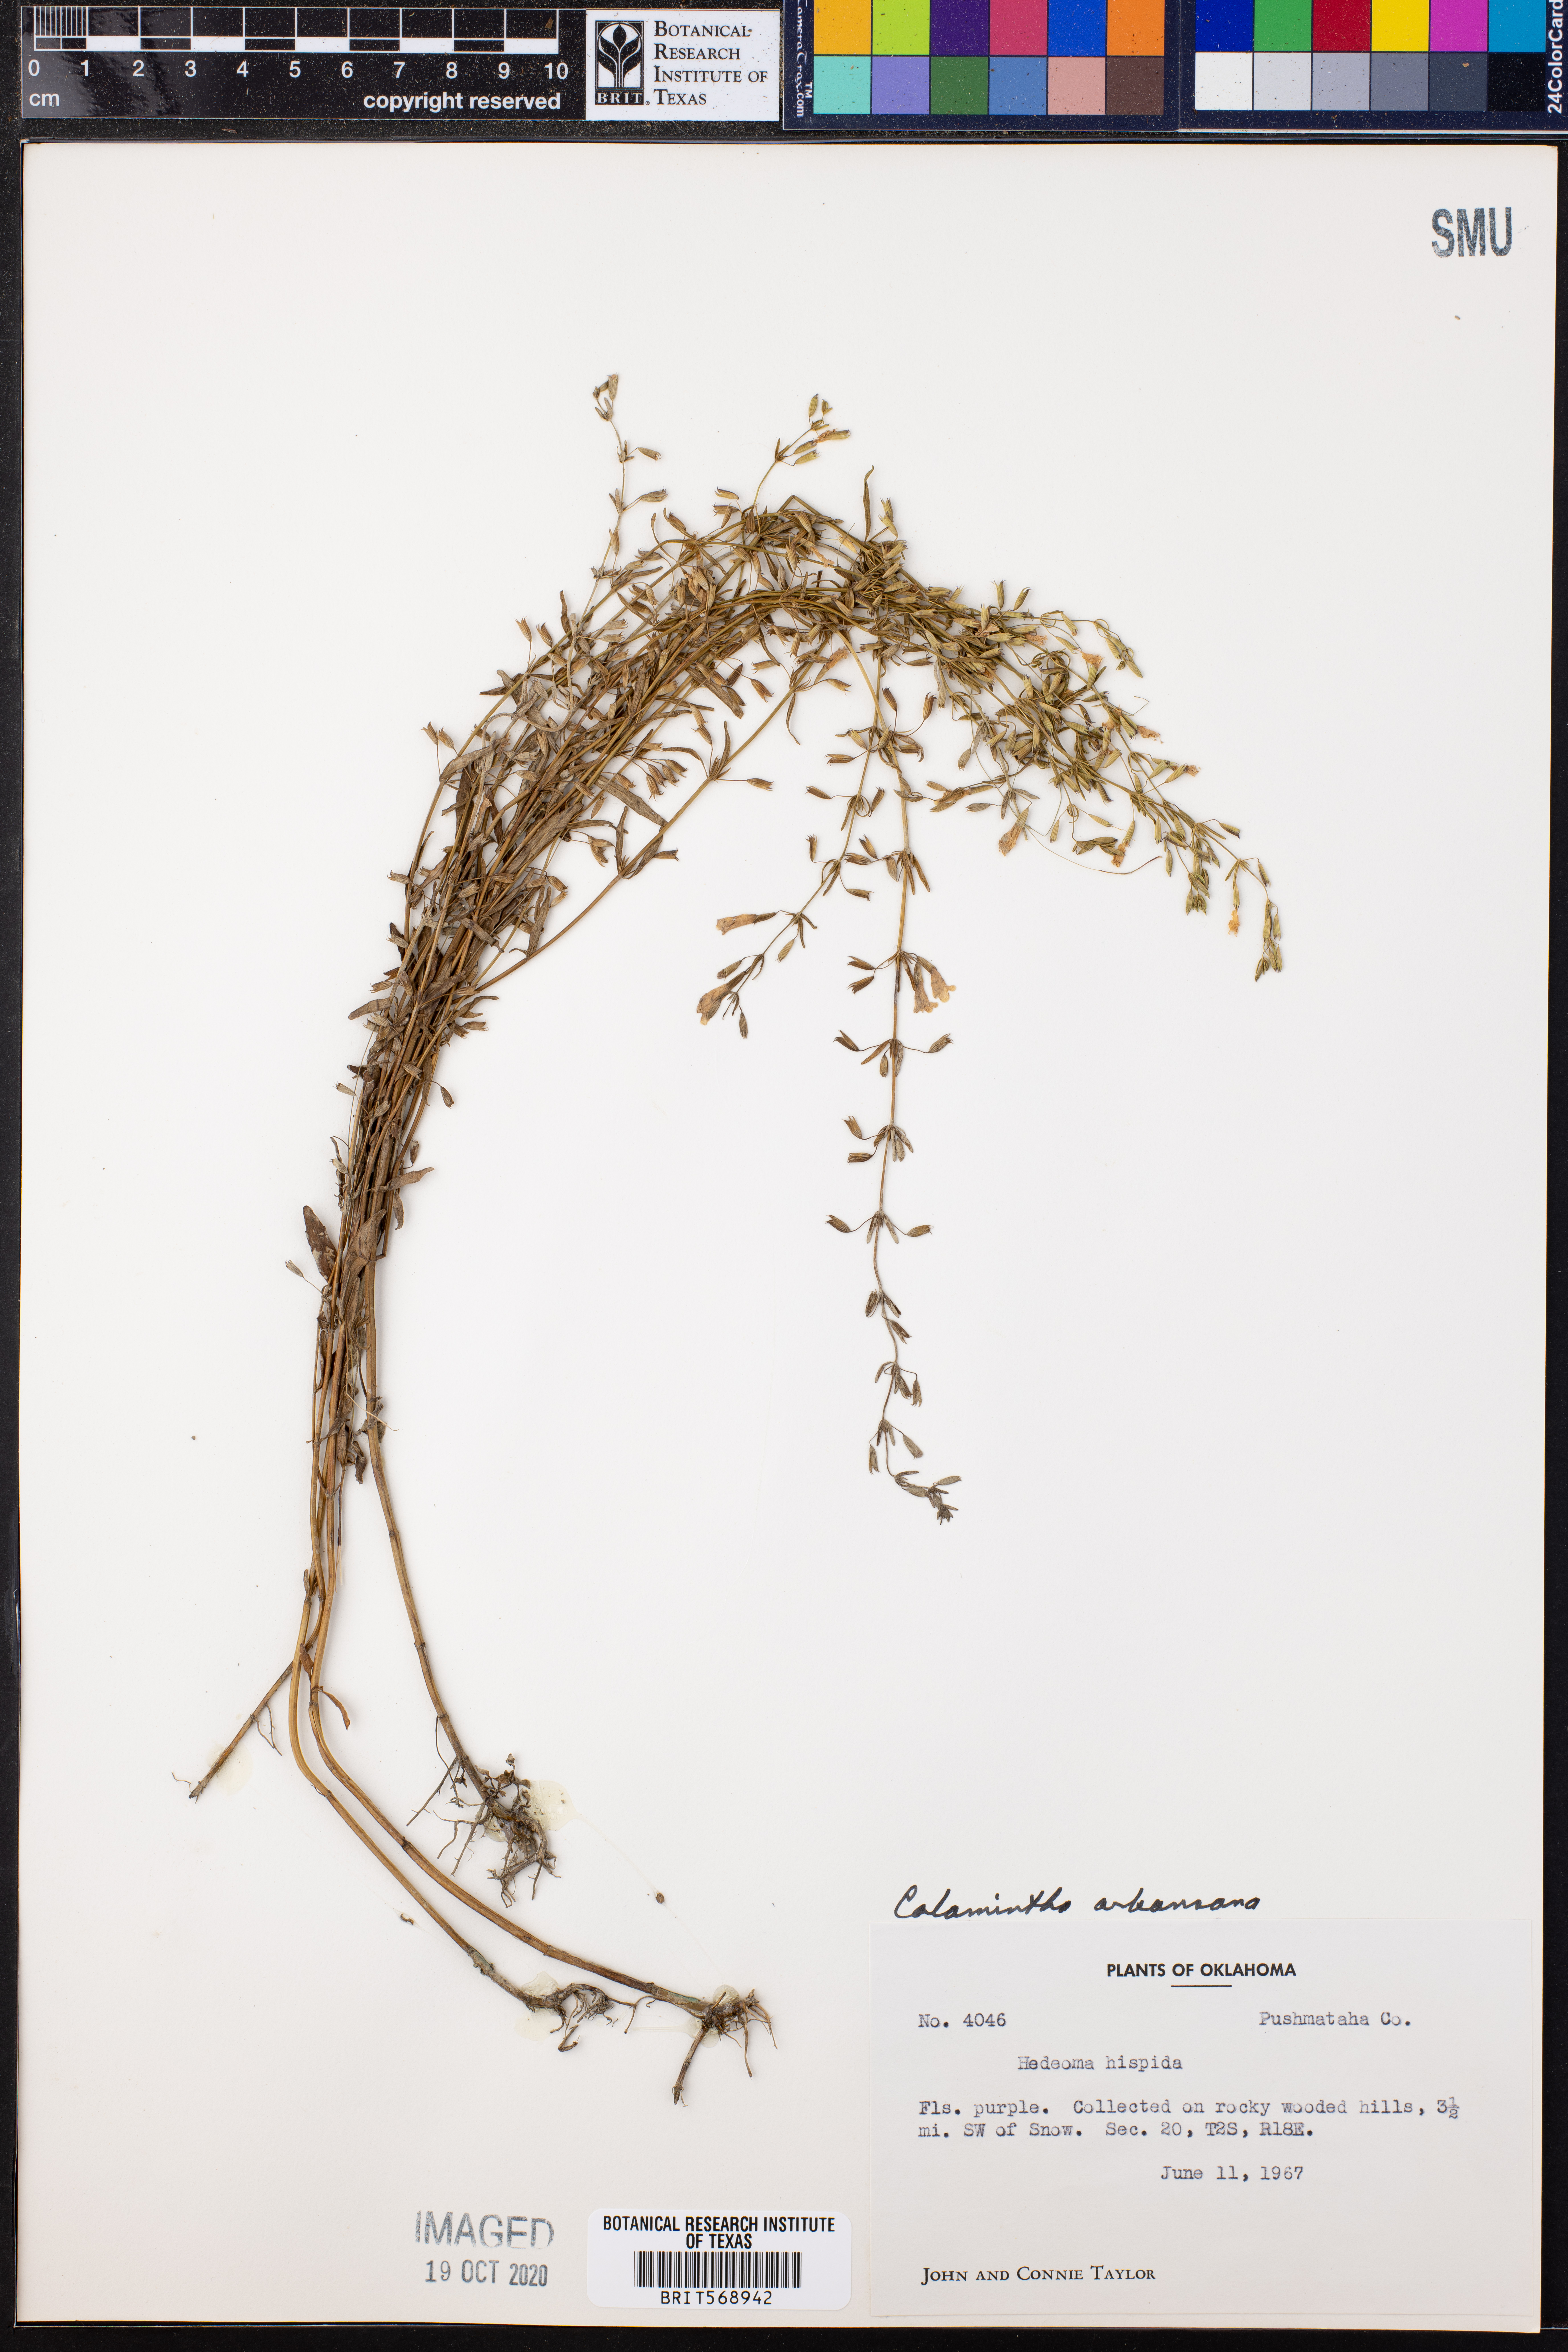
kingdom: Plantae
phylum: Tracheophyta
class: Magnoliopsida
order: Lamiales
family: Lamiaceae
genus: Clinopodium
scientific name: Clinopodium arkansanum
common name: Limestone calamint
